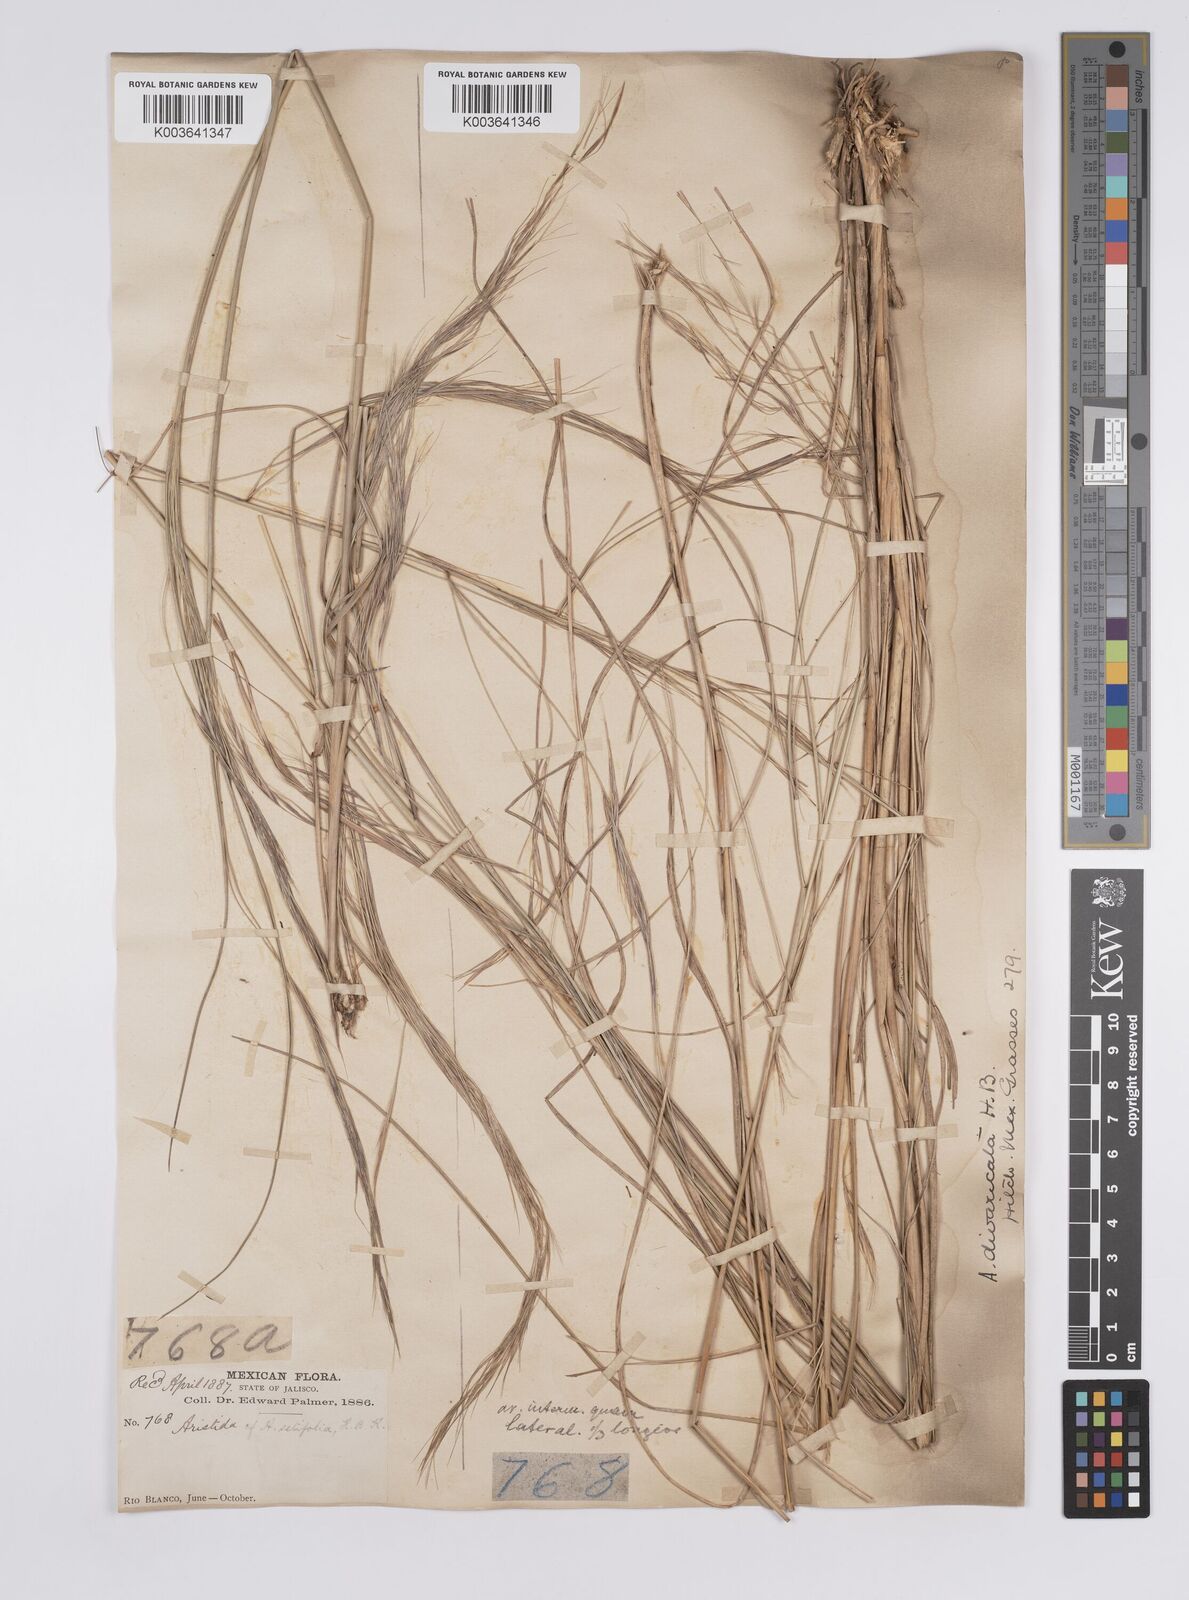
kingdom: Plantae
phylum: Tracheophyta
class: Liliopsida
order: Poales
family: Poaceae
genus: Aristida
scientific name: Aristida divaricata
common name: Poverty grass
